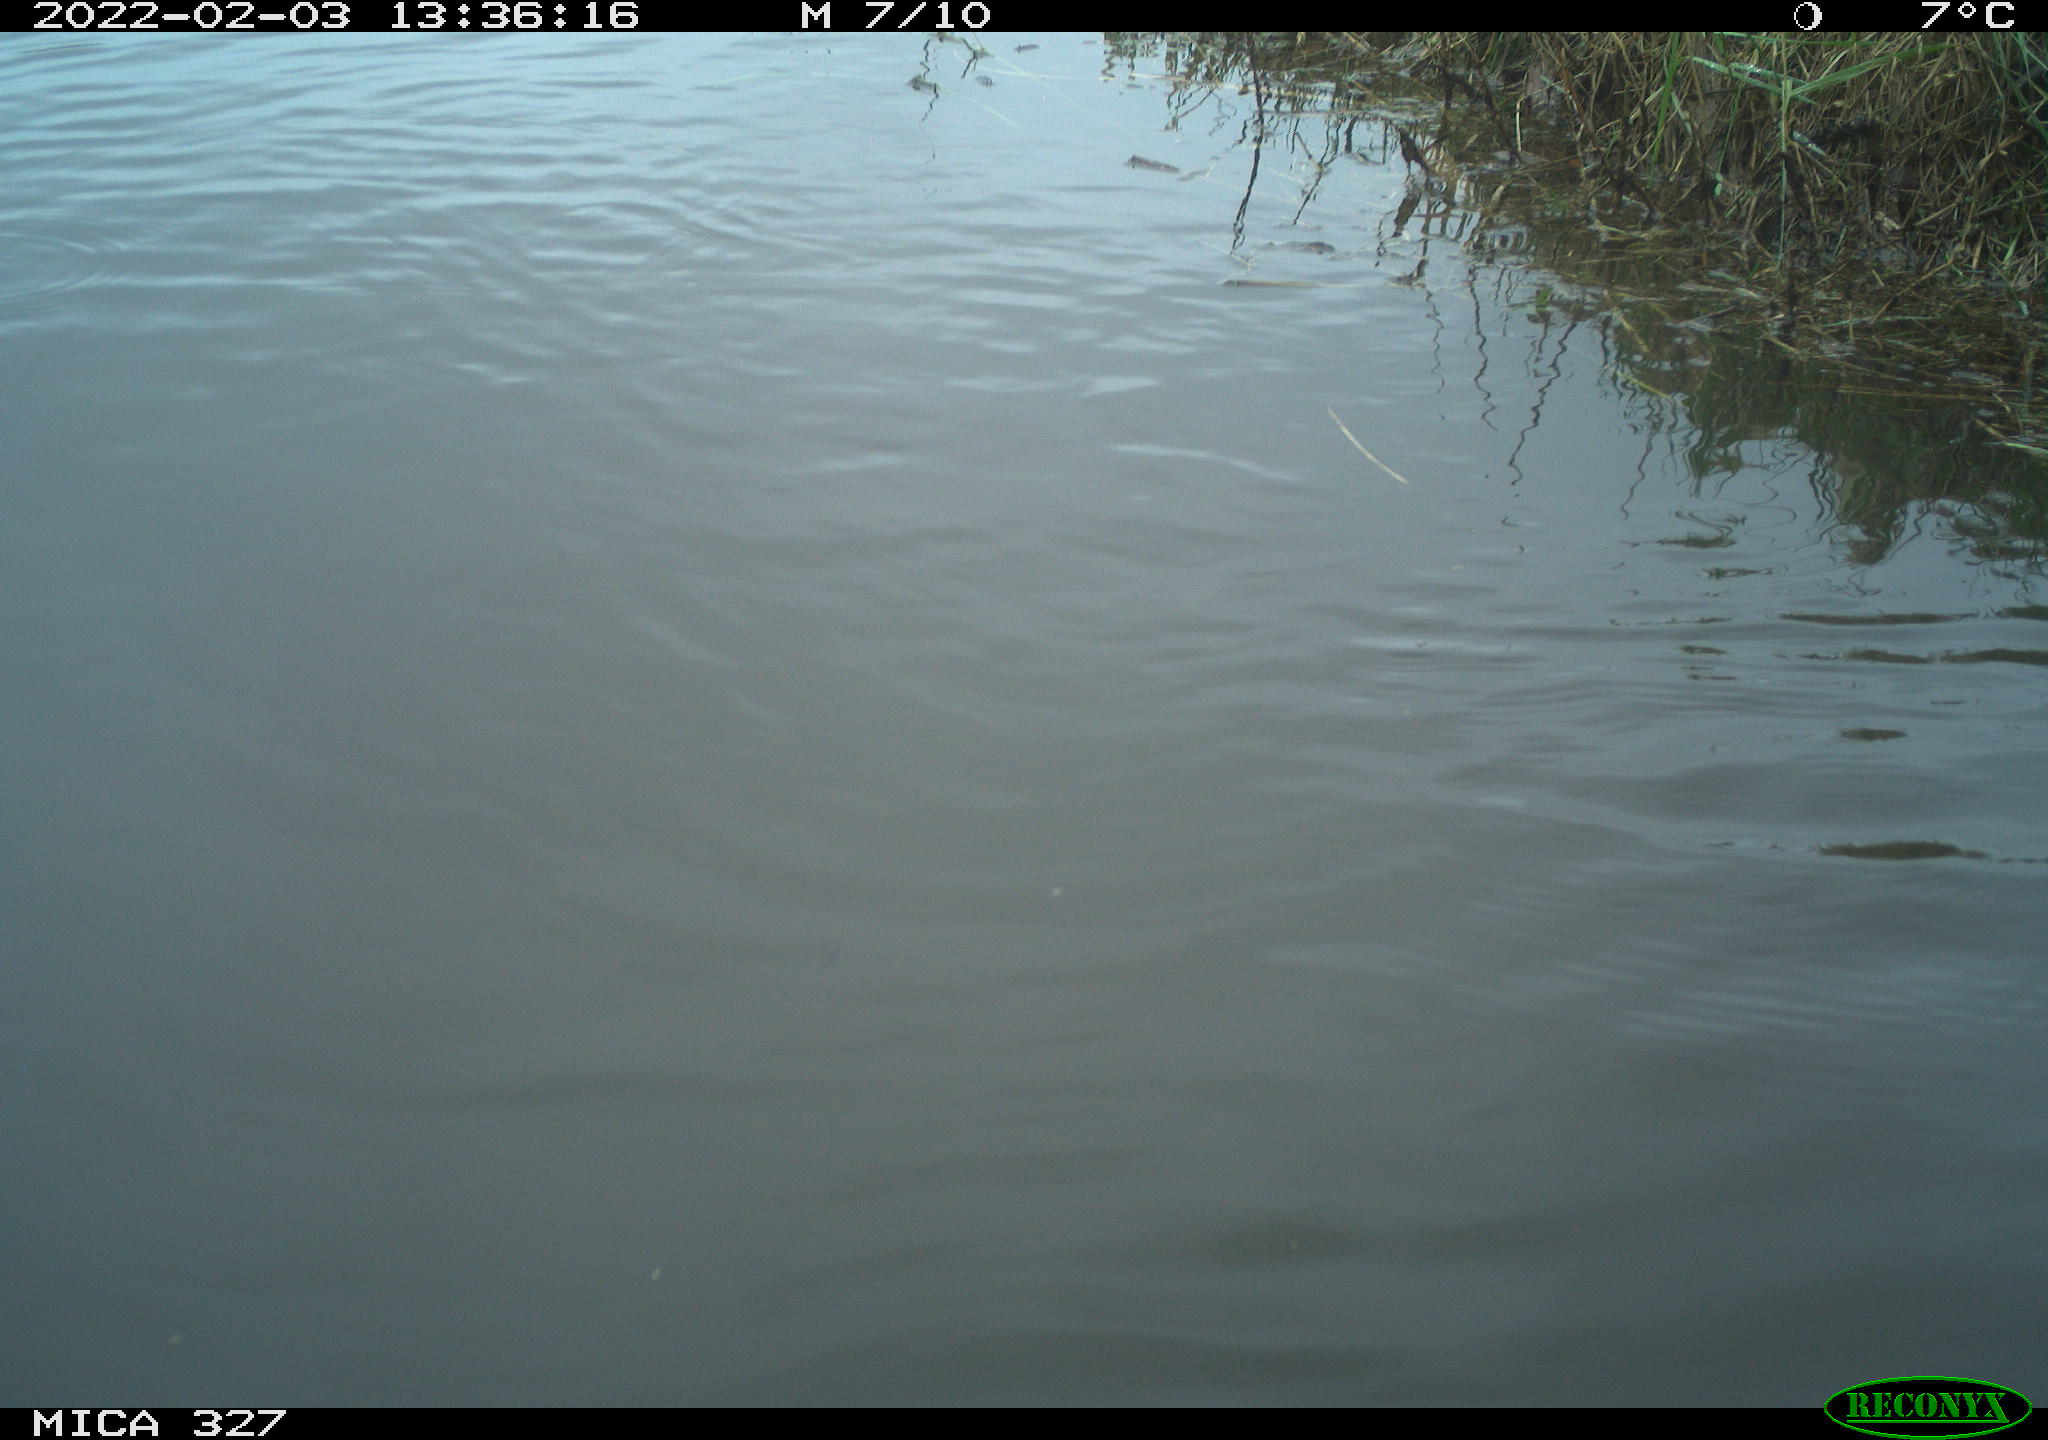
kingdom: Animalia
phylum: Chordata
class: Aves
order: Podicipediformes
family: Podicipedidae
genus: Tachybaptus
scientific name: Tachybaptus ruficollis
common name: Little grebe
